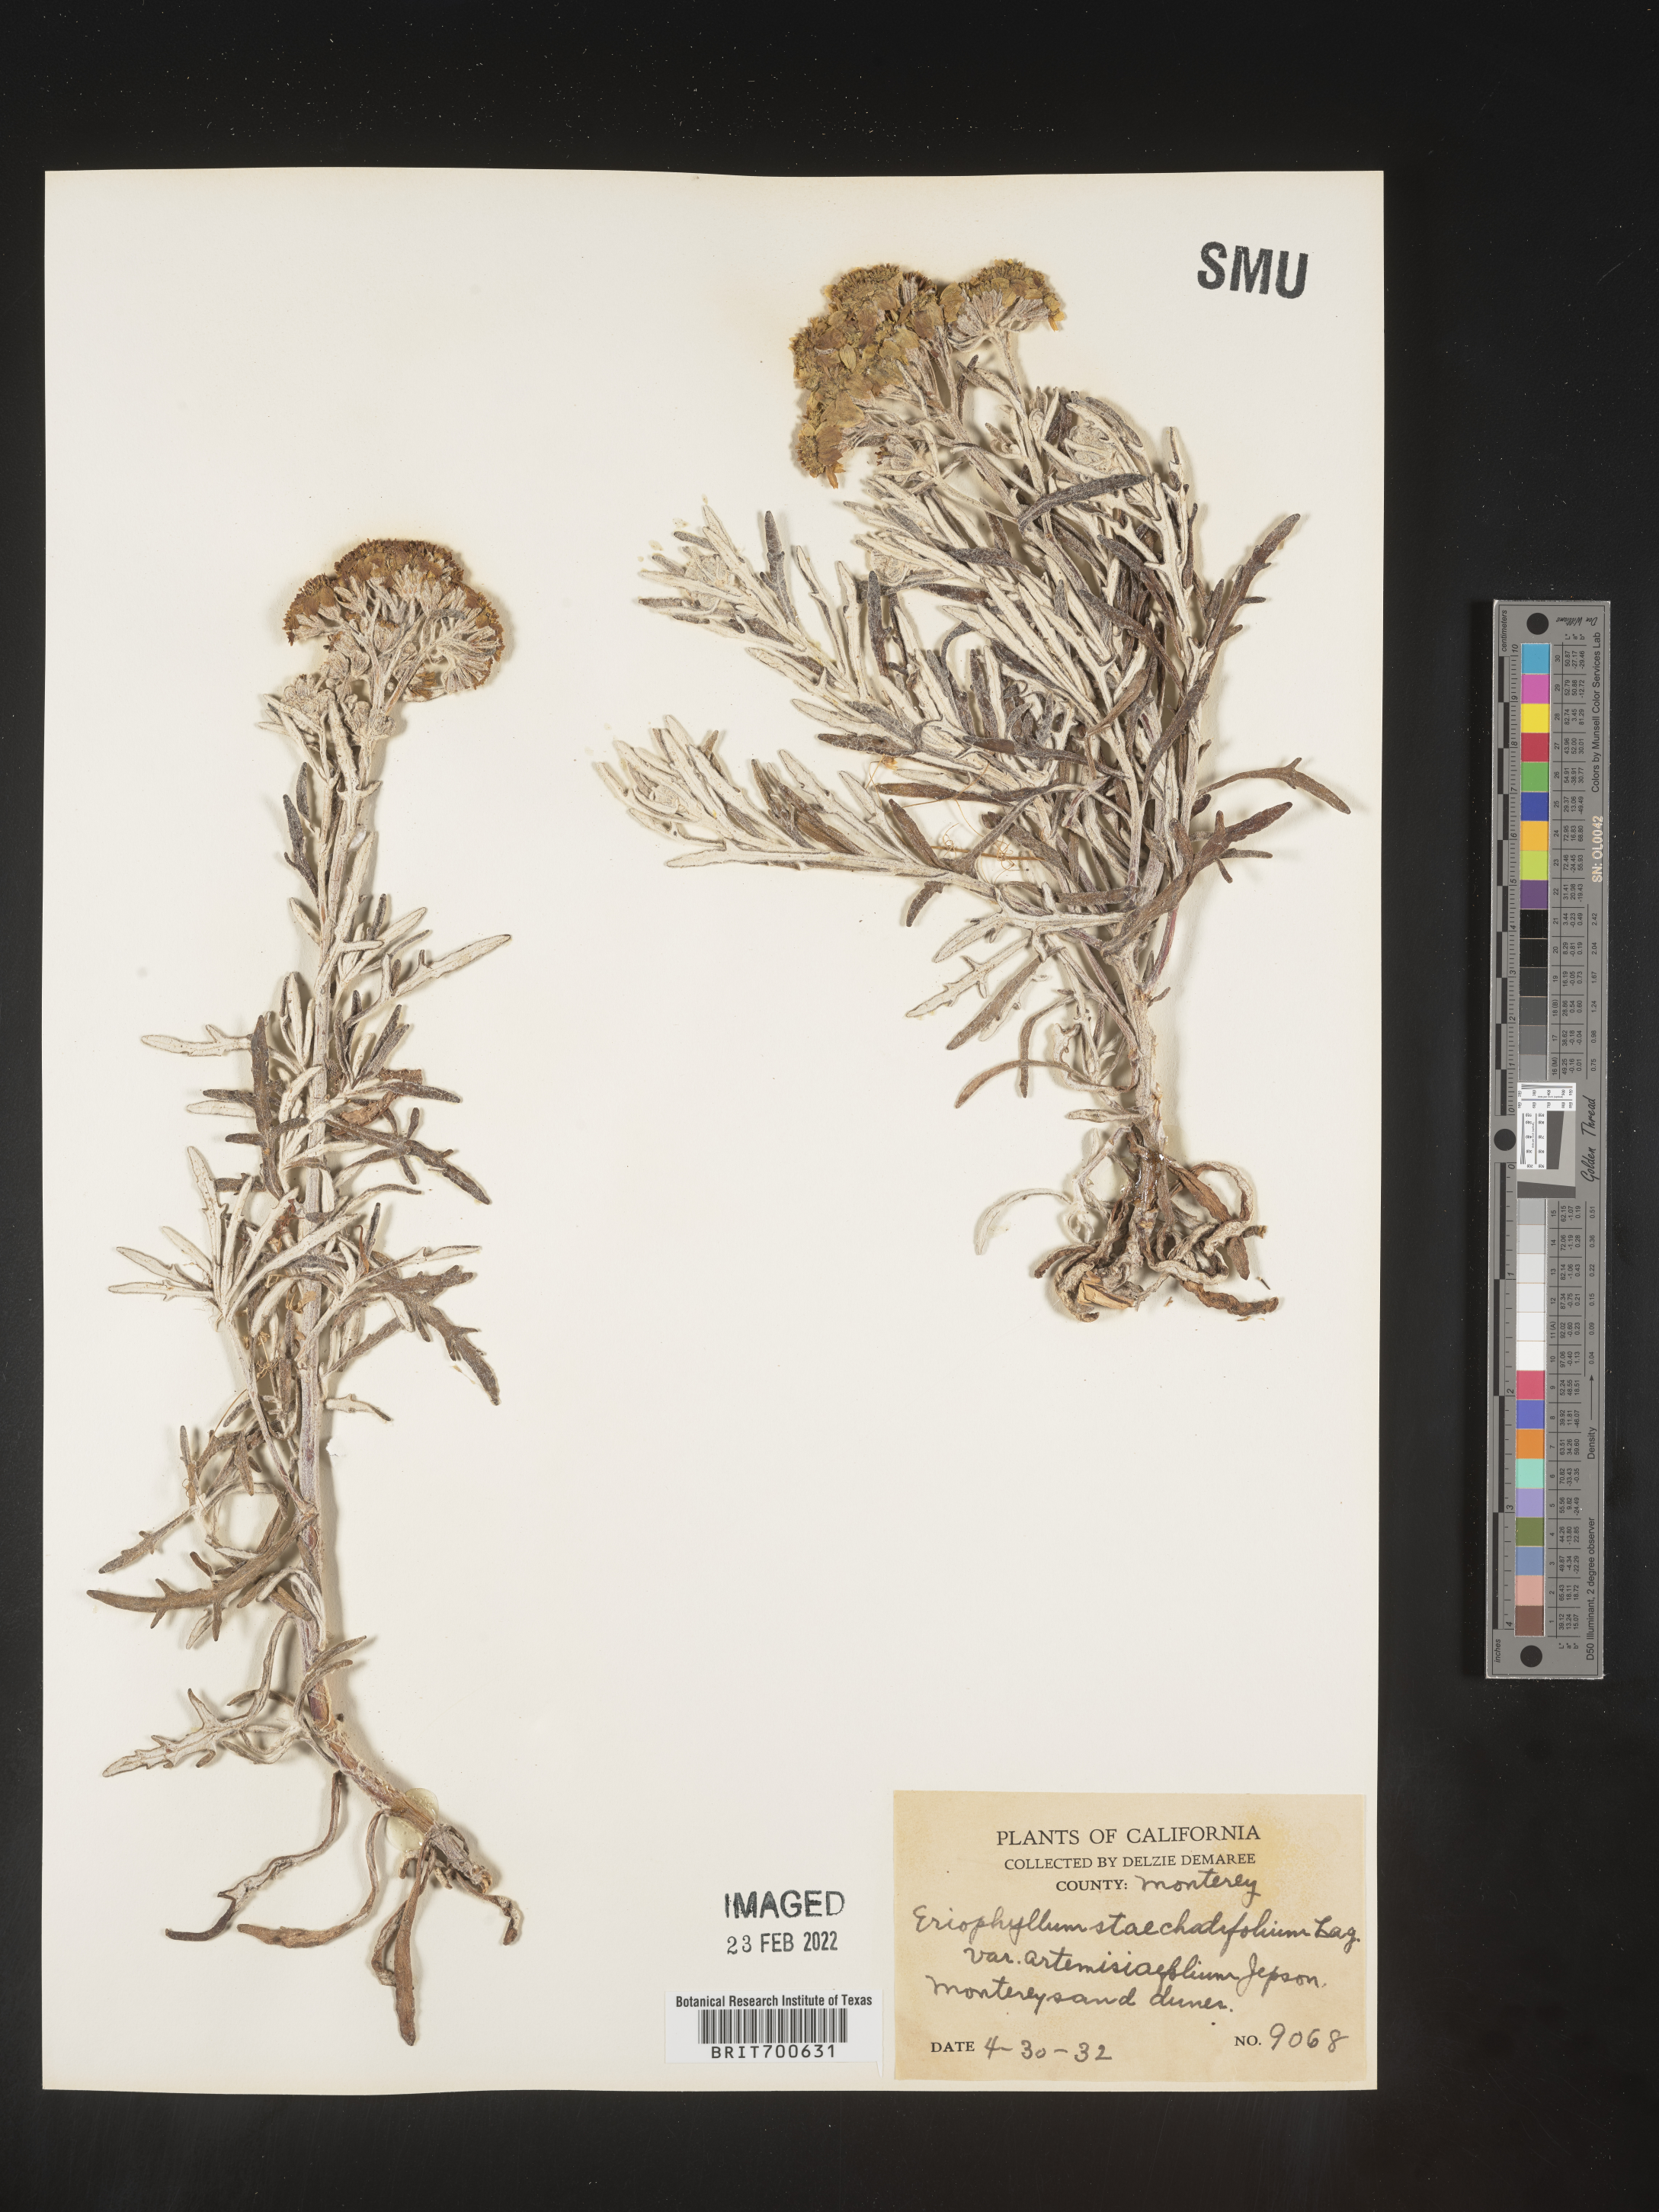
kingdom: Plantae
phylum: Tracheophyta
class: Magnoliopsida
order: Asterales
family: Asteraceae
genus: Eriophyllum
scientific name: Eriophyllum staechadifolium
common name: Lizardtail
